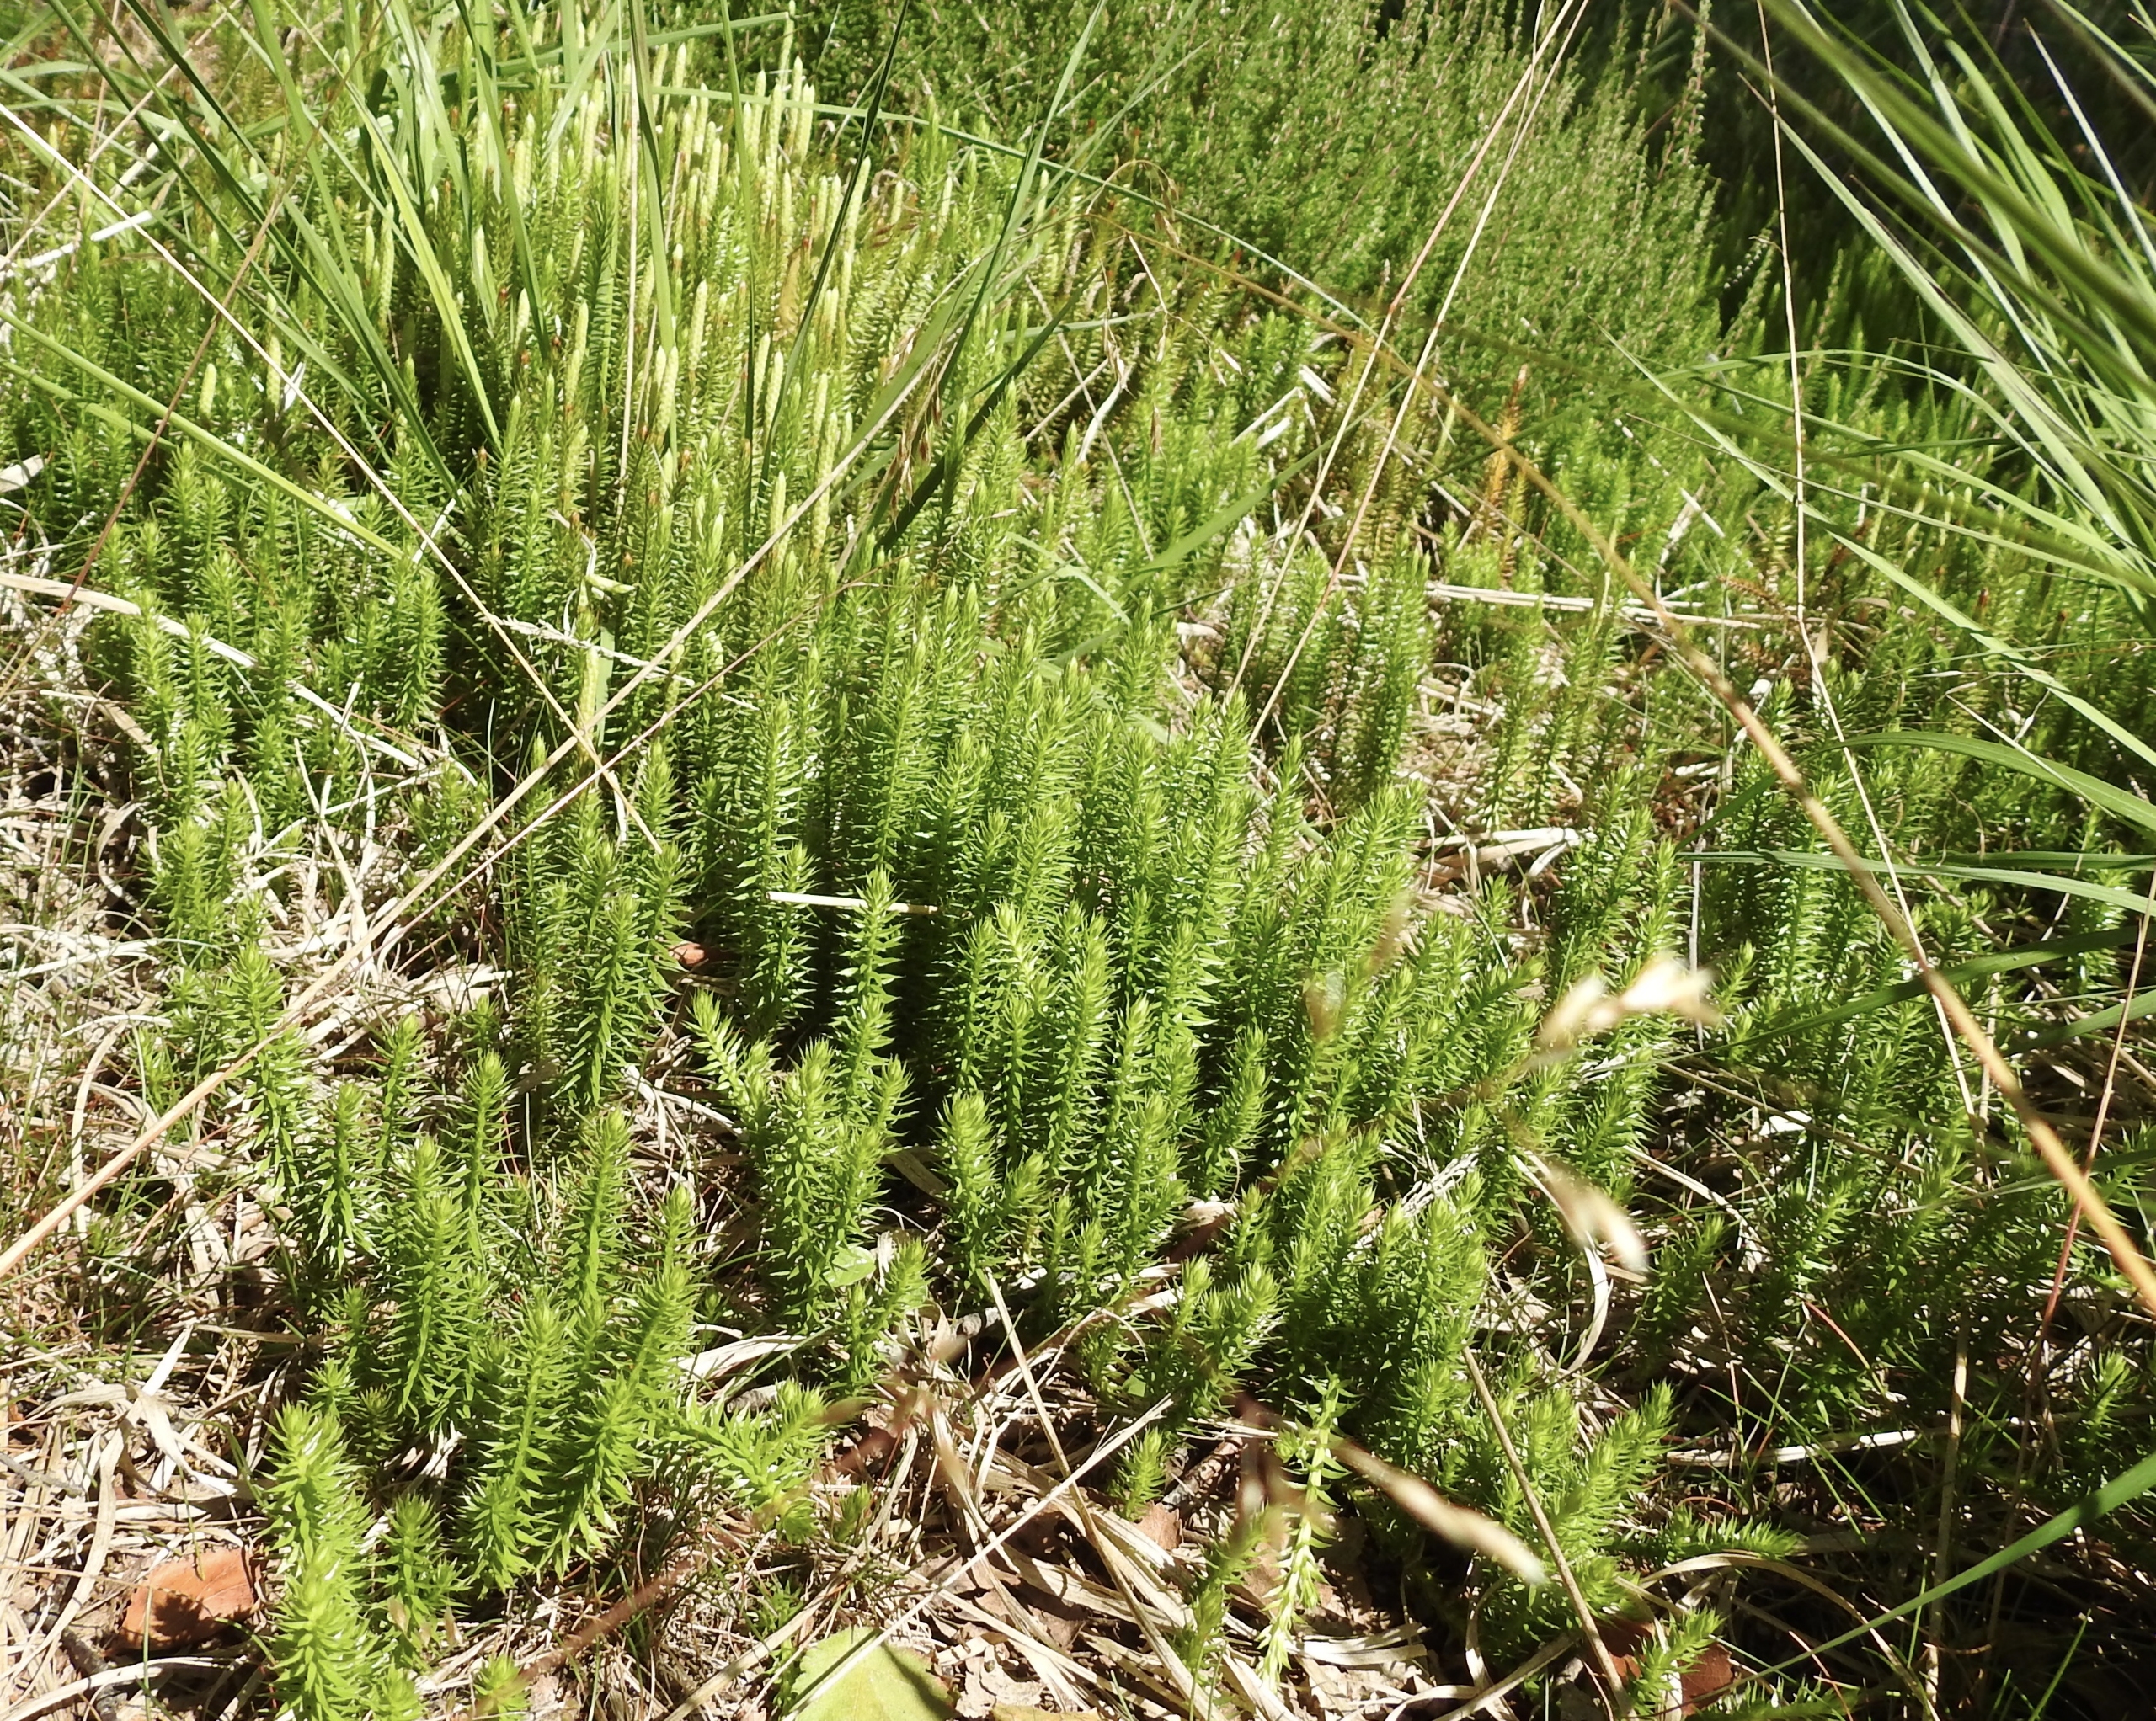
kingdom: Plantae
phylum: Tracheophyta
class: Lycopodiopsida
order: Lycopodiales
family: Lycopodiaceae
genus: Spinulum
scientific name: Spinulum annotinum
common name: Femradet ulvefod
